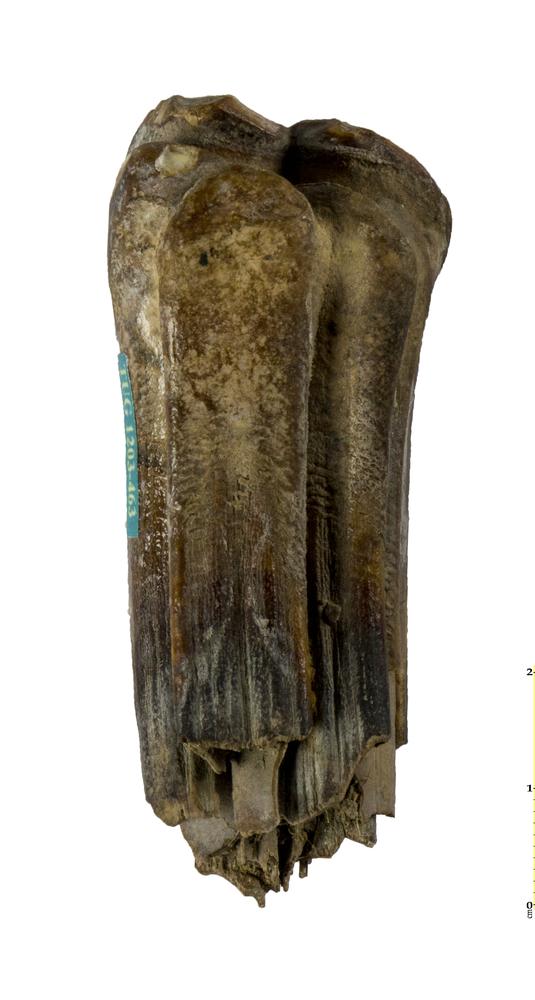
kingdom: Animalia
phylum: Chordata
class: Mammalia
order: Perissodactyla
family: Equidae
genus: Equus
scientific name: Equus
